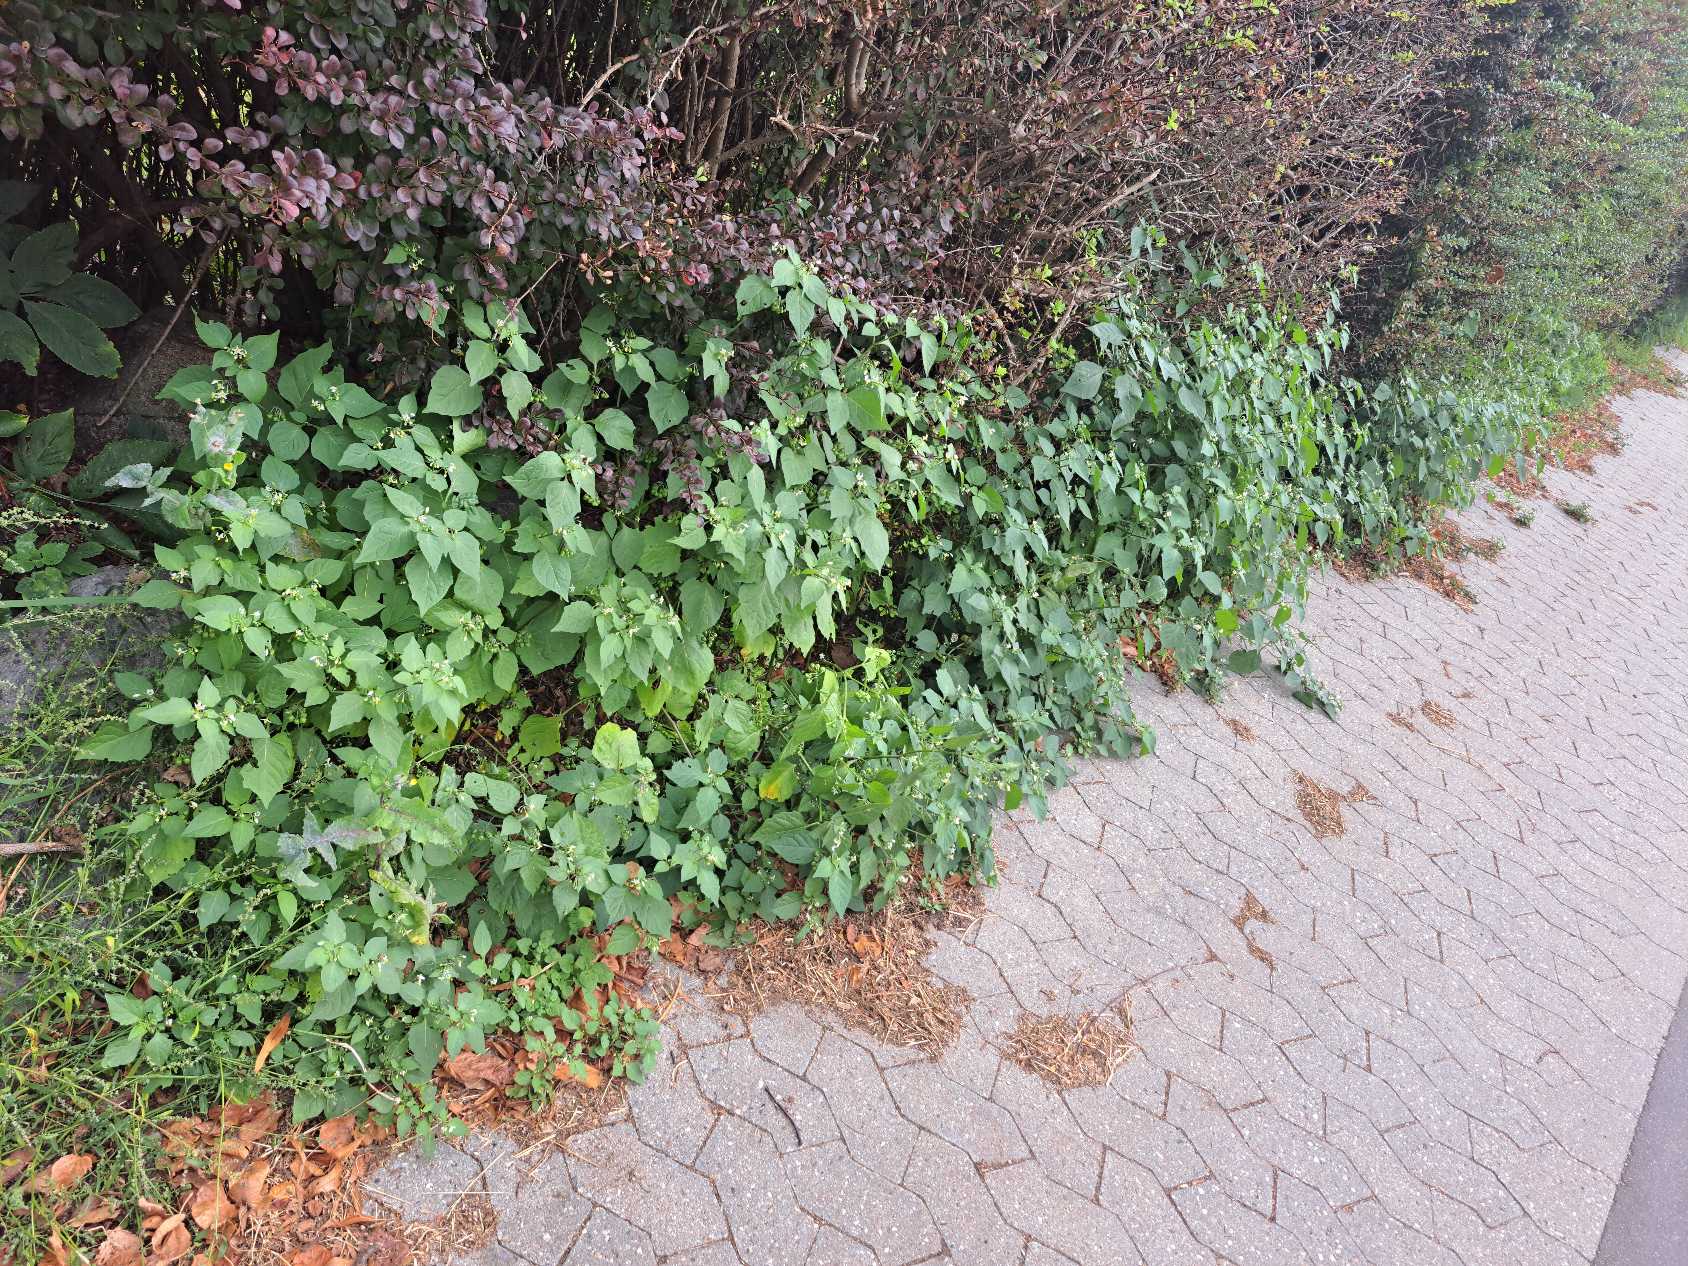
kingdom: Plantae
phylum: Tracheophyta
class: Magnoliopsida
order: Solanales
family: Solanaceae
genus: Solanum
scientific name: Solanum nigrum
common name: Sort natskygge
